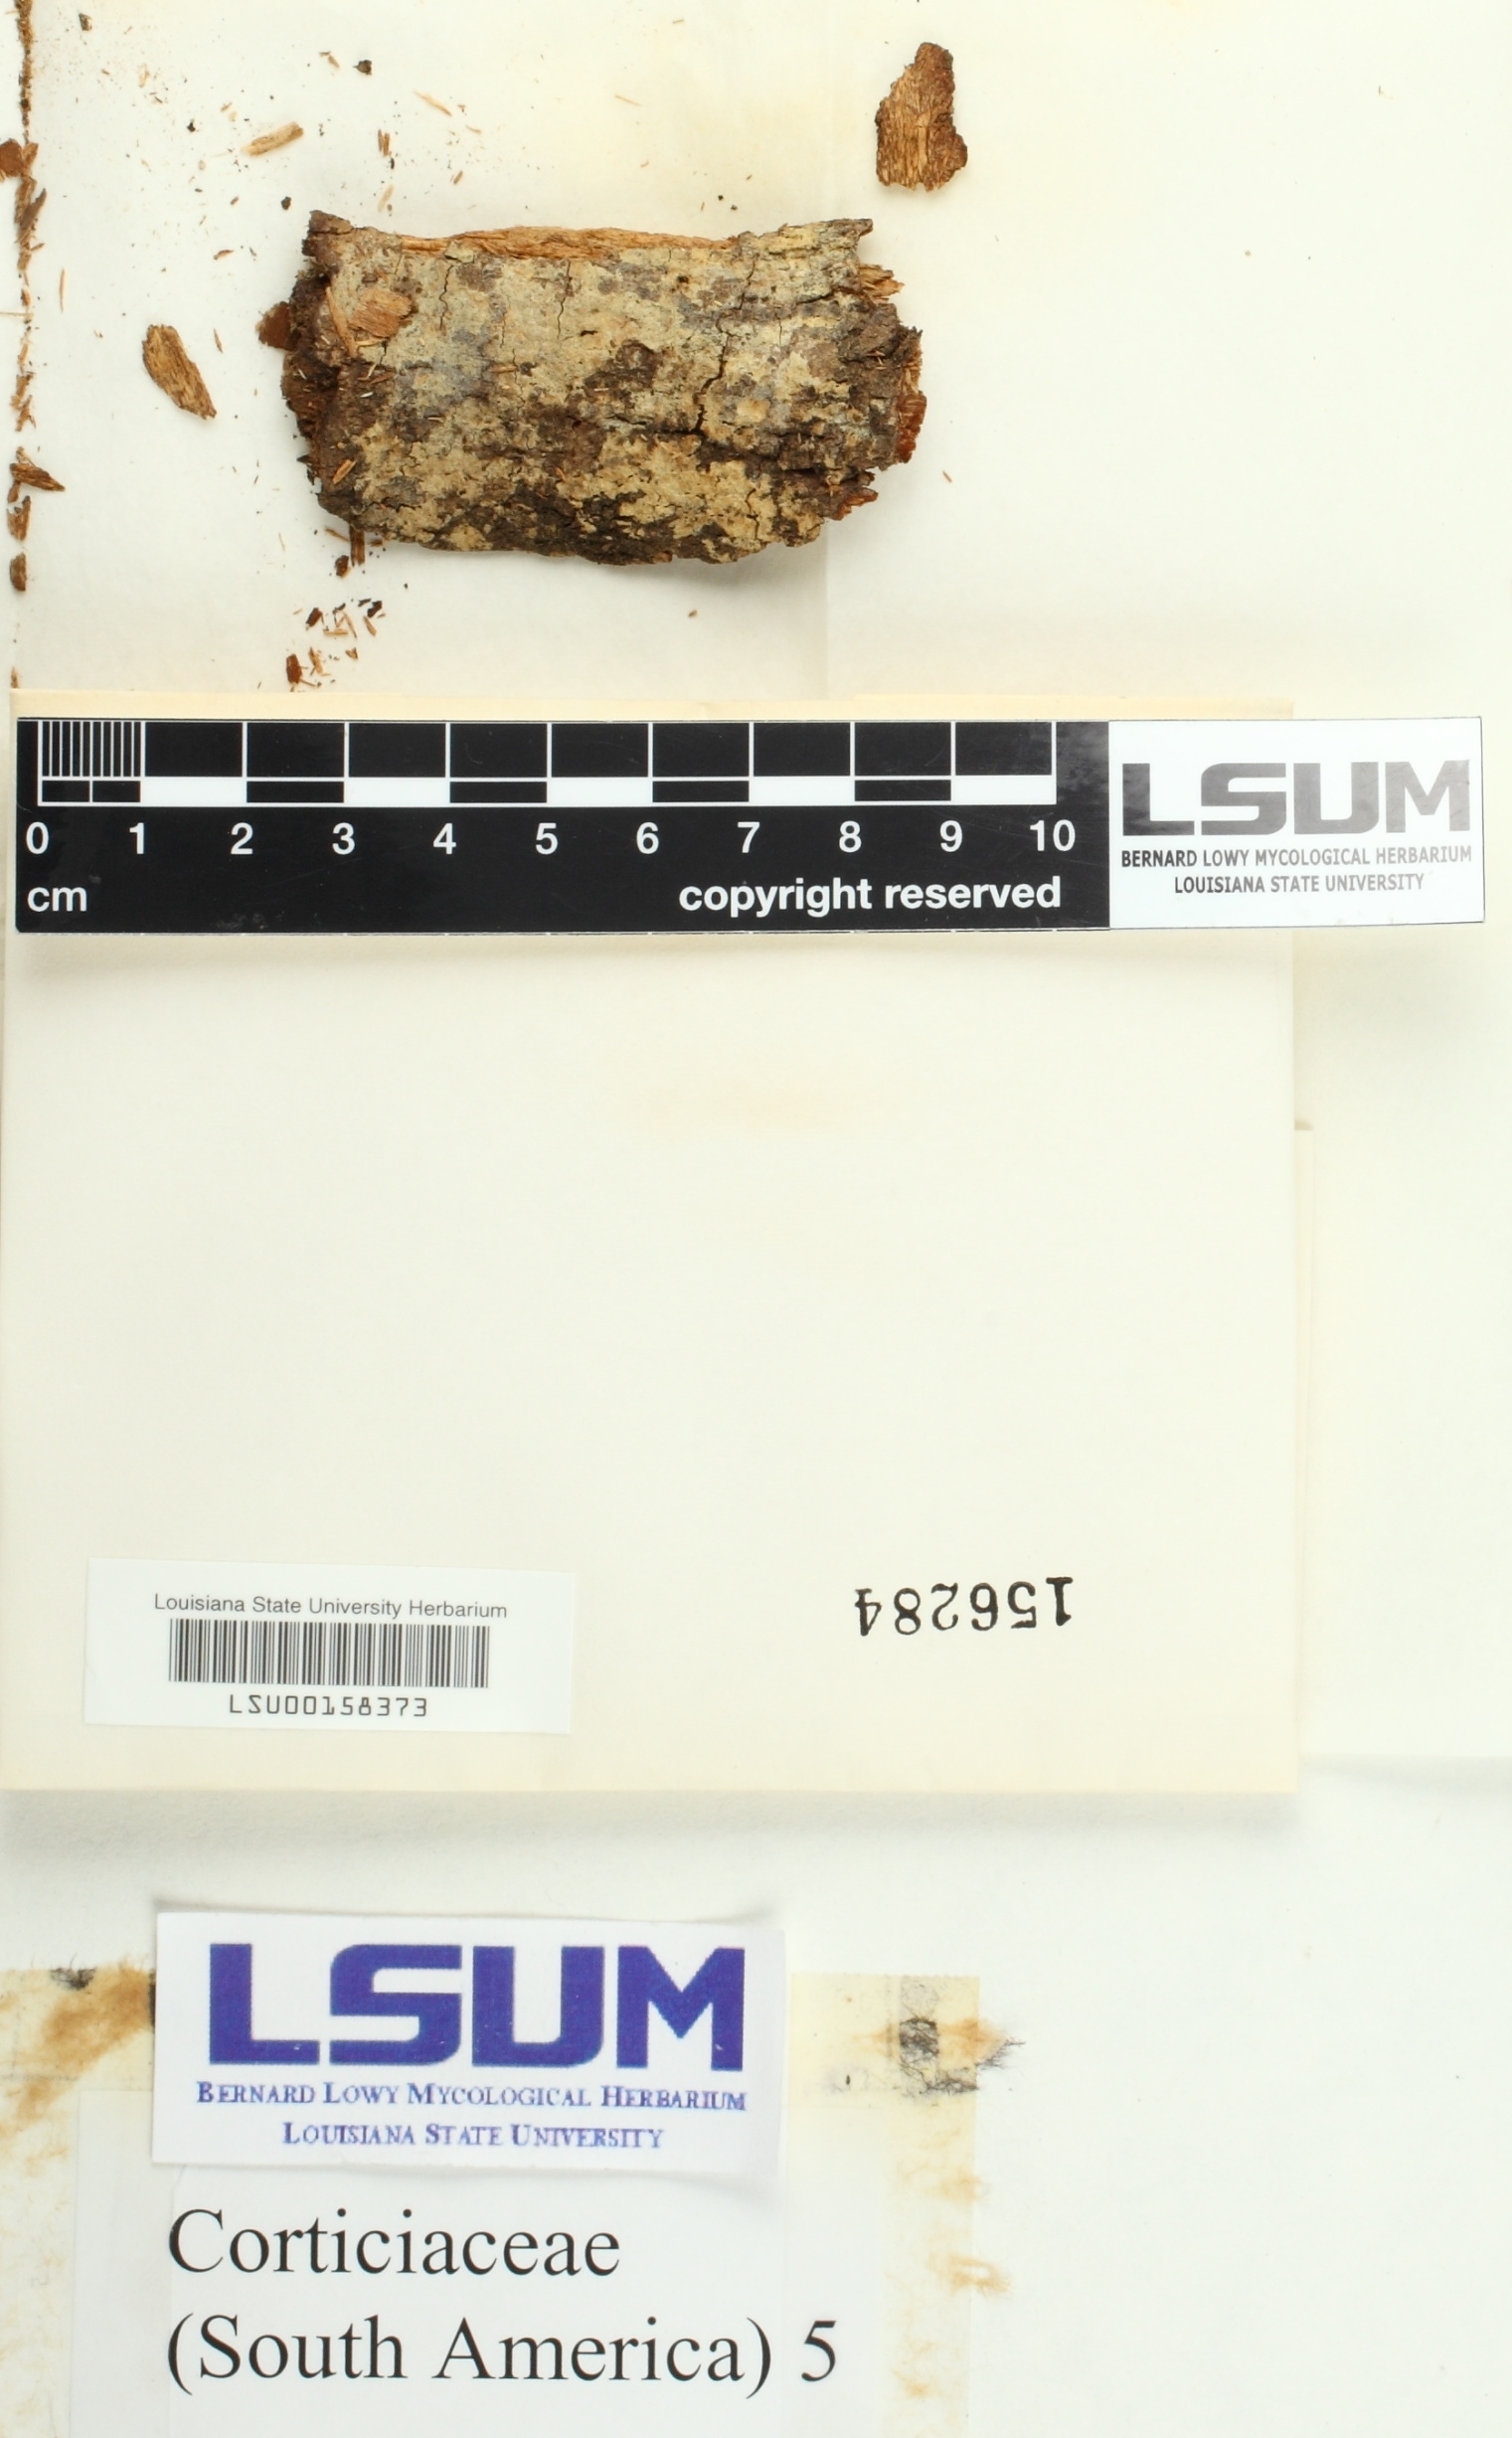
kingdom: Fungi
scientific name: Fungi
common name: Fungi
